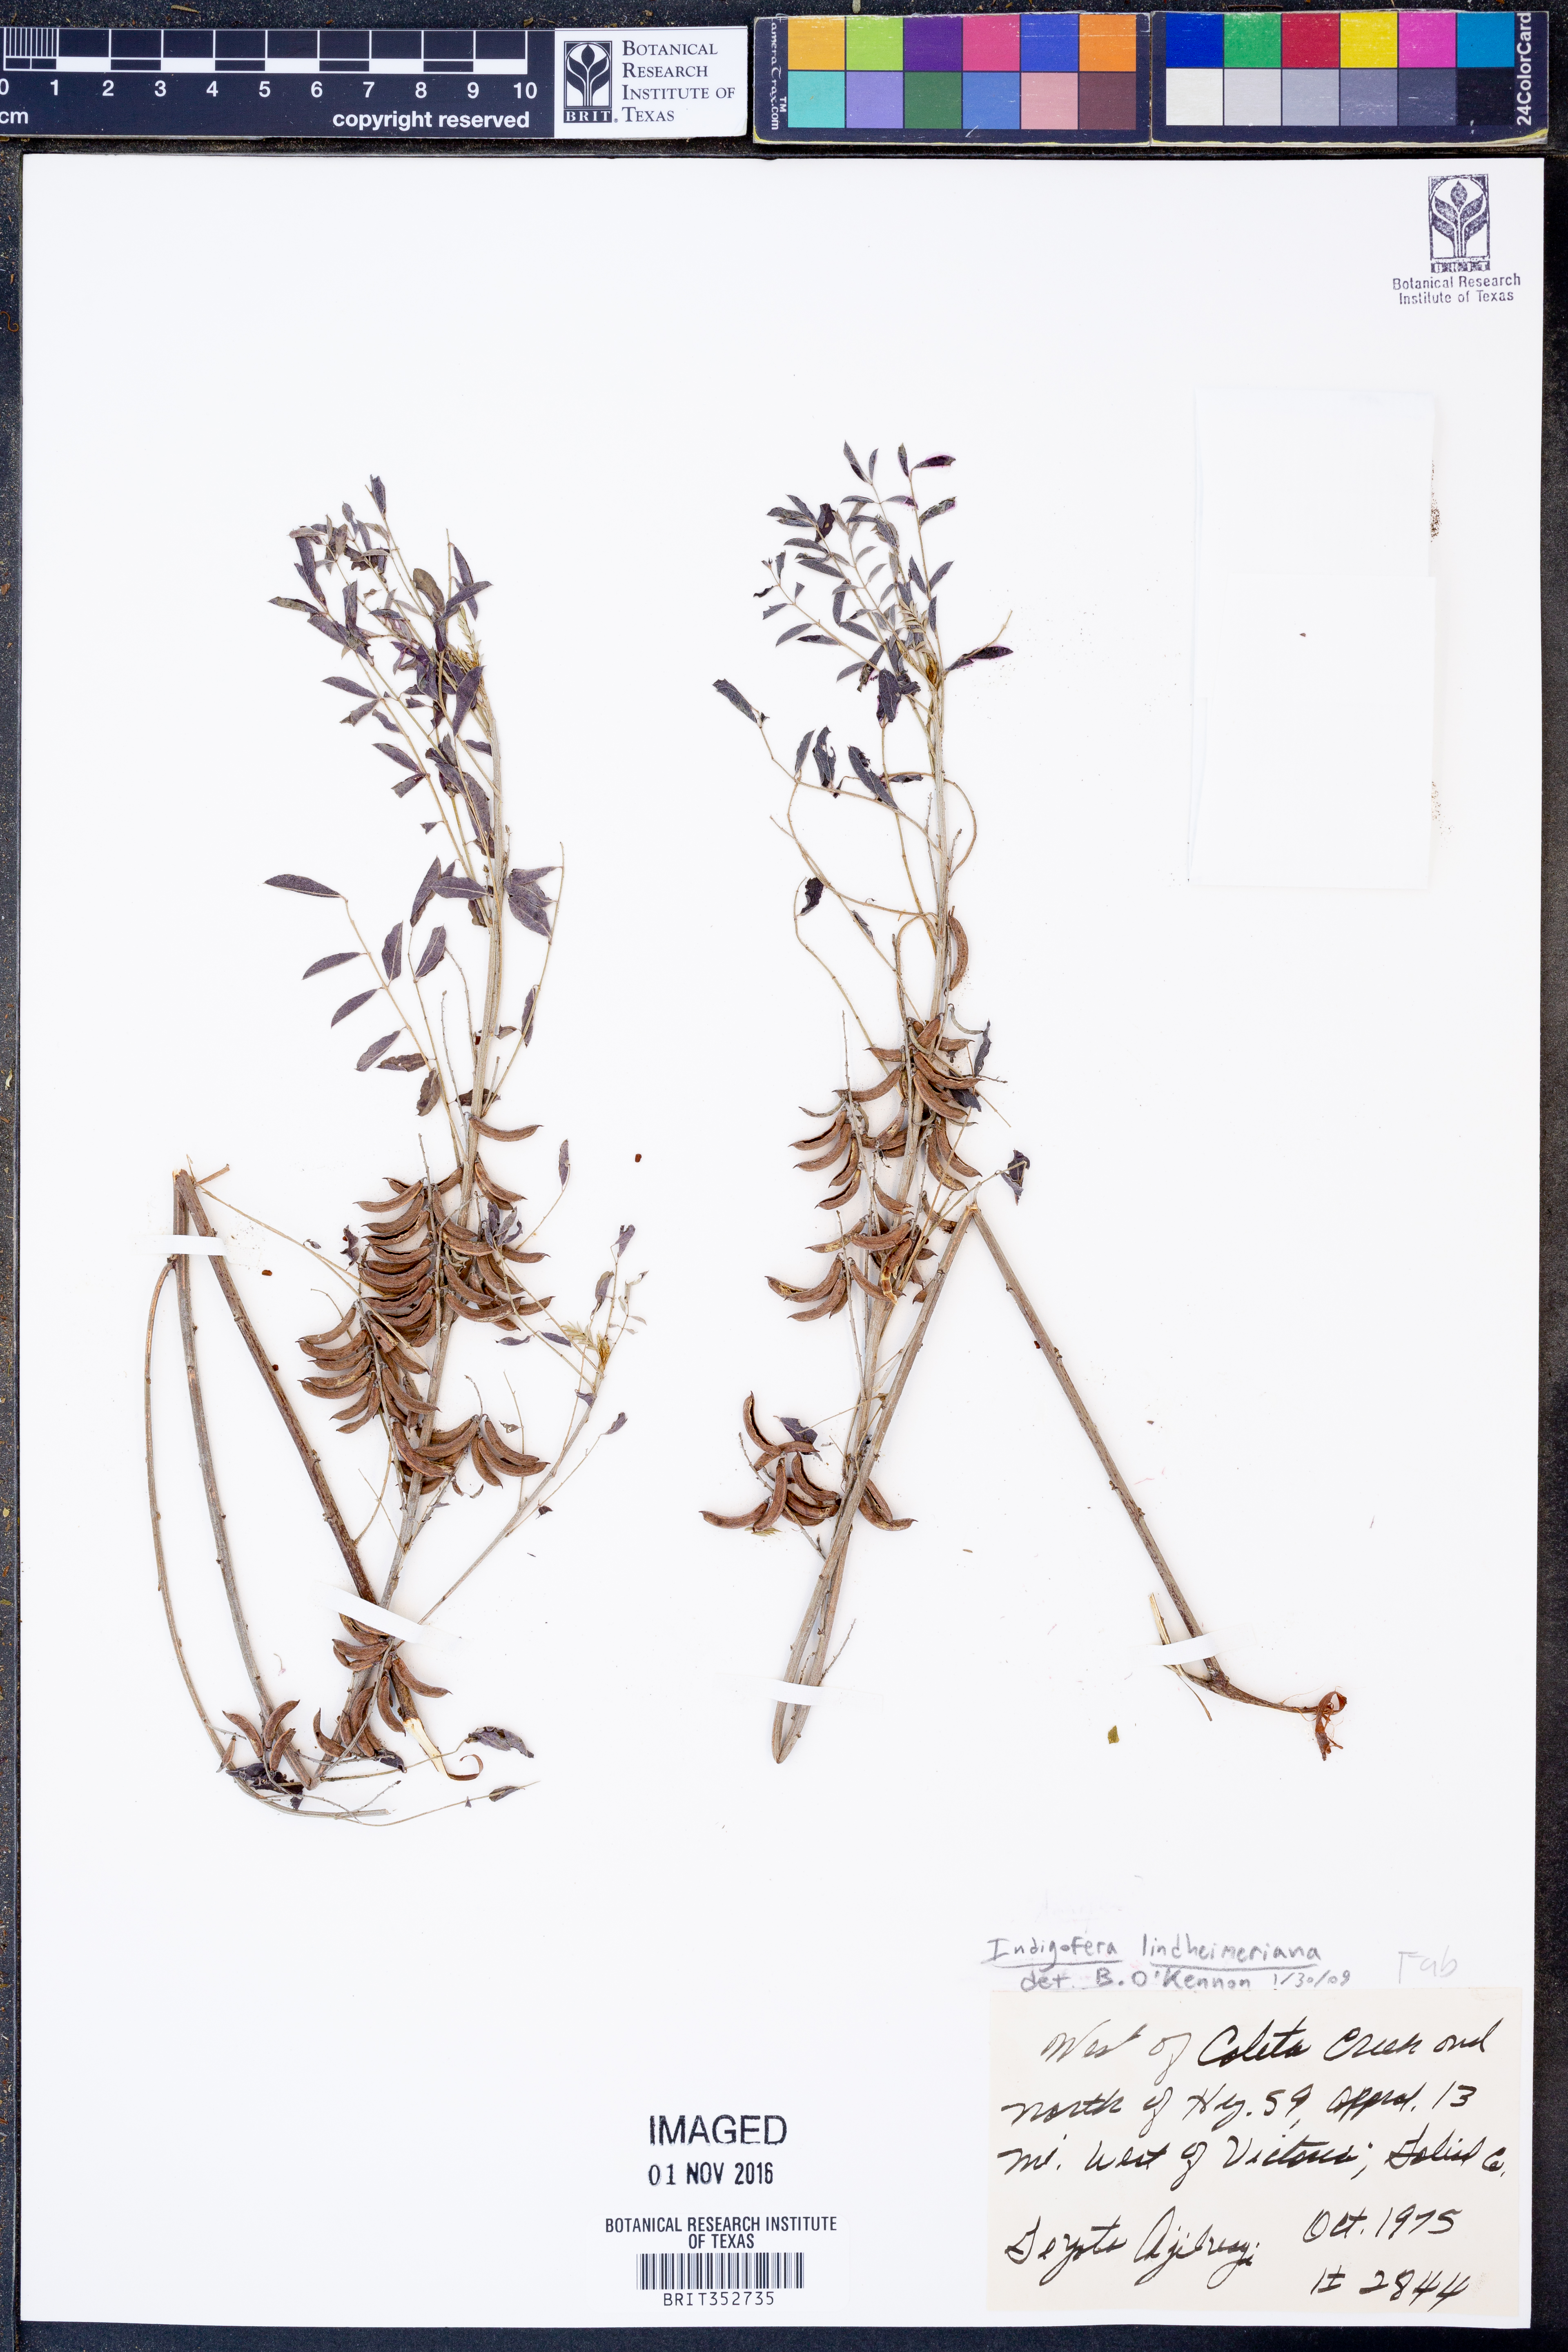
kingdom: Plantae
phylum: Tracheophyta
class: Magnoliopsida
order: Fabales
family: Fabaceae
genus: Indigofera
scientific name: Indigofera lindheimeriana
